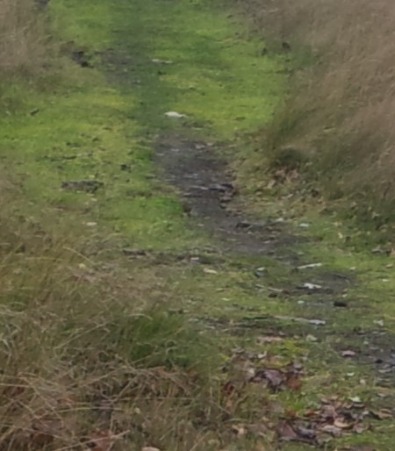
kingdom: Animalia
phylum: Chordata
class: Aves
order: Passeriformes
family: Emberizidae
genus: Emberiza
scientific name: Emberiza pusilla
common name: Dværgværling
